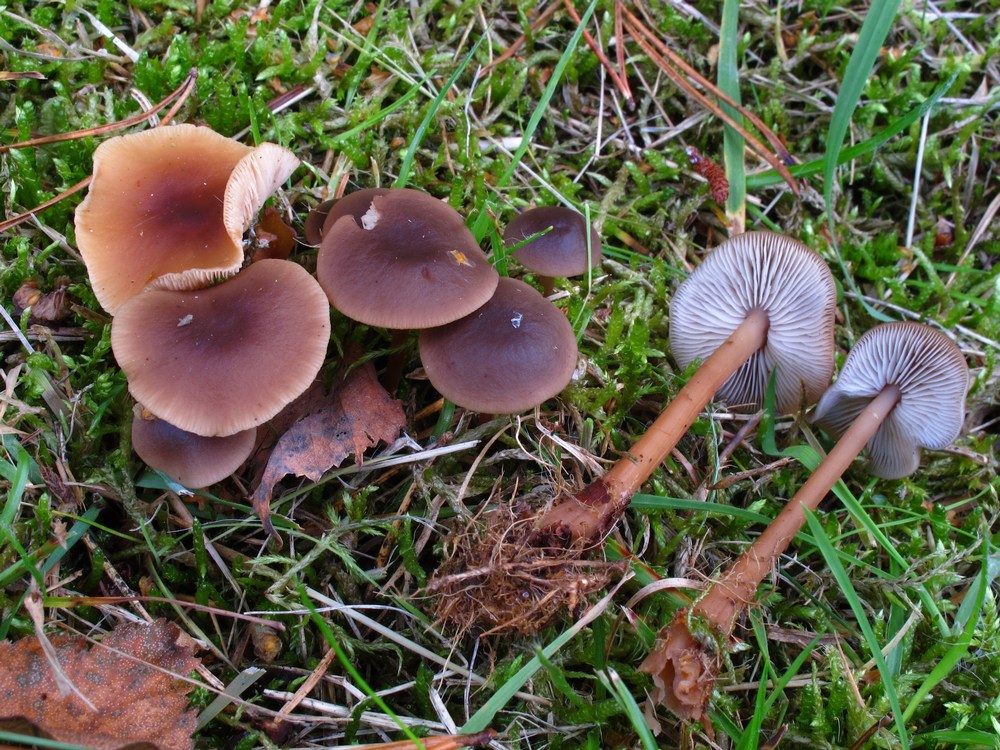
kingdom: Fungi
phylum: Basidiomycota
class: Agaricomycetes
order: Agaricales
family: Omphalotaceae
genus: Gymnopus
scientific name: Gymnopus ocior
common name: mørk fladhat
